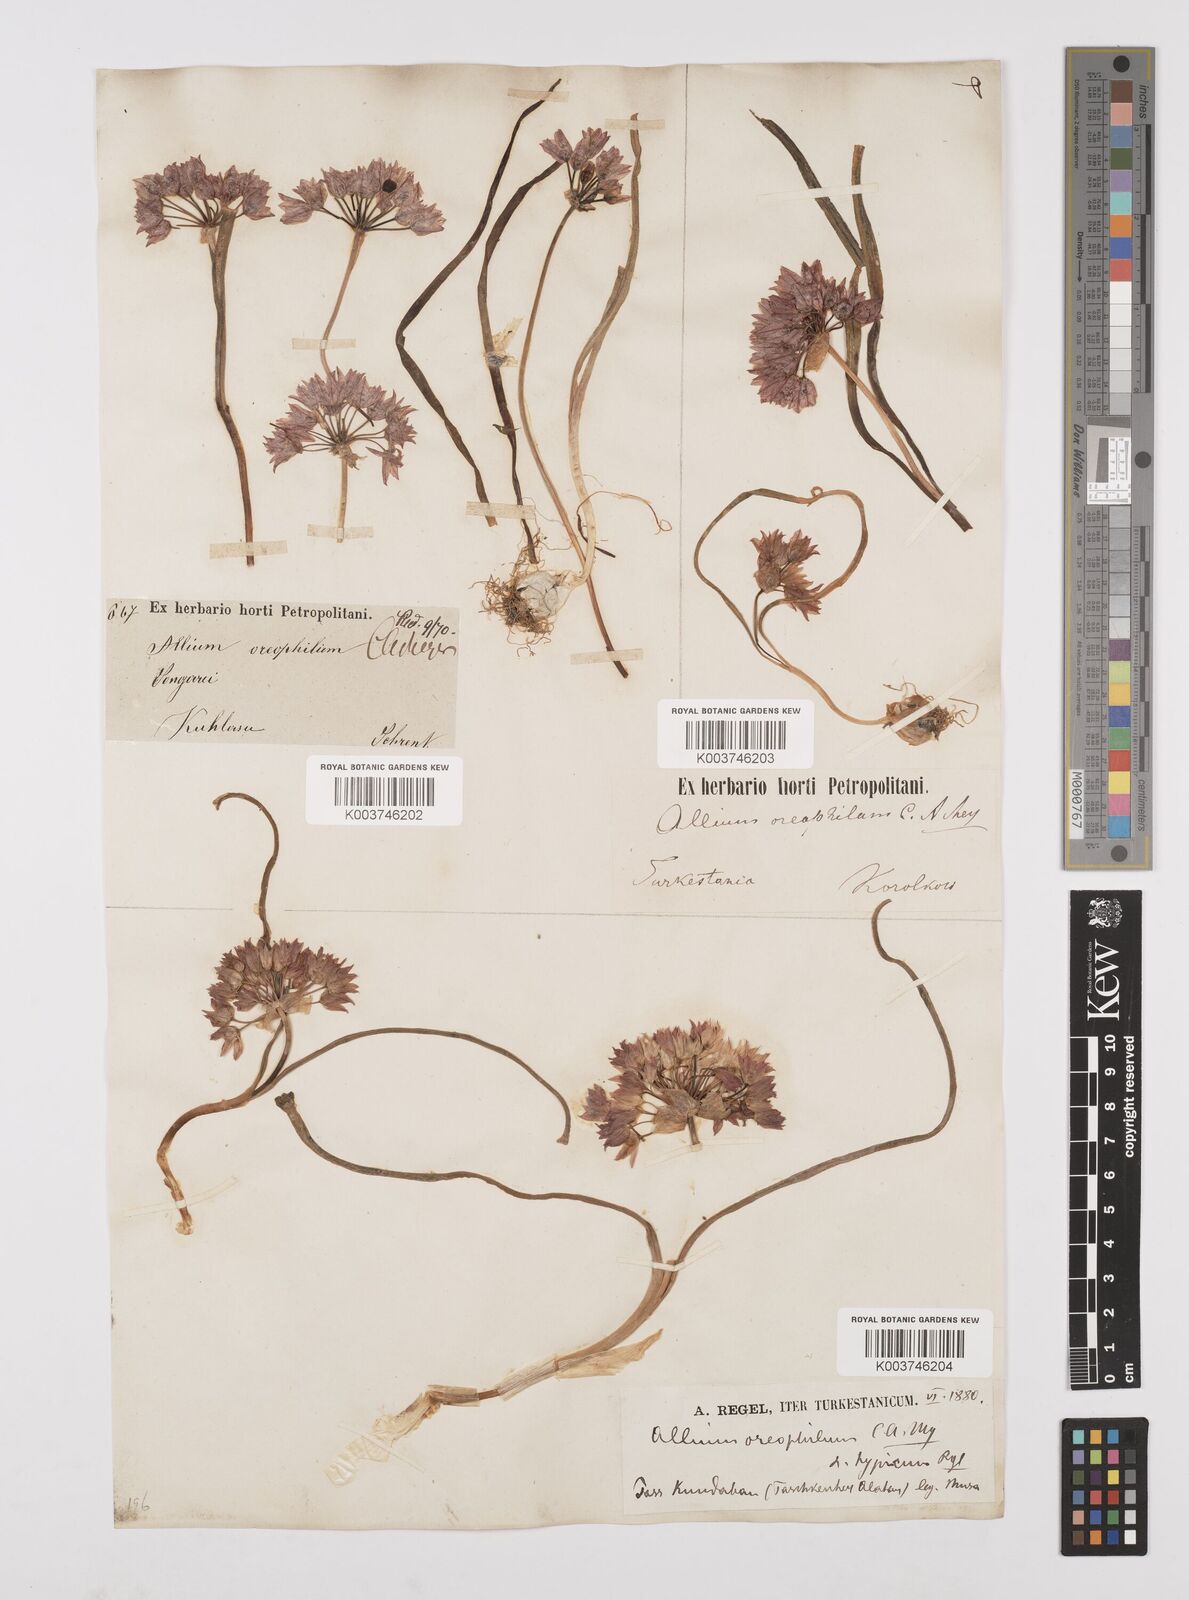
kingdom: Plantae
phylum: Tracheophyta
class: Liliopsida
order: Asparagales
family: Amaryllidaceae
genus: Allium
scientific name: Allium oreophilum
